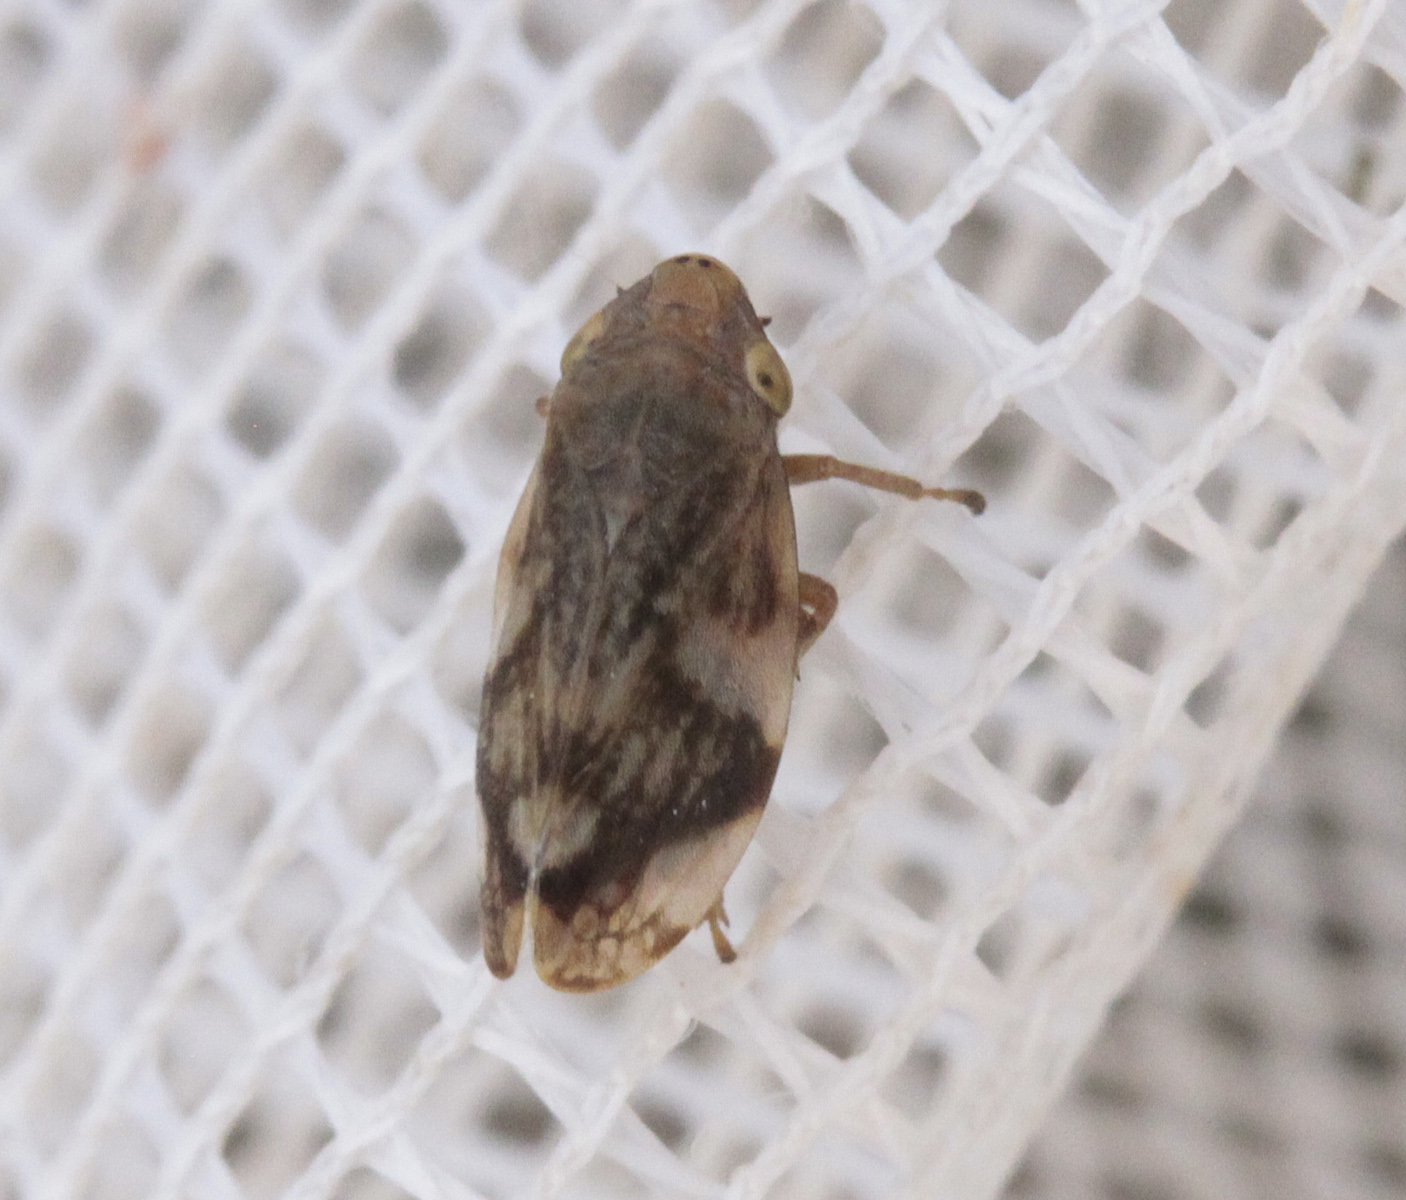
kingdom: Animalia
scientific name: Animalia
